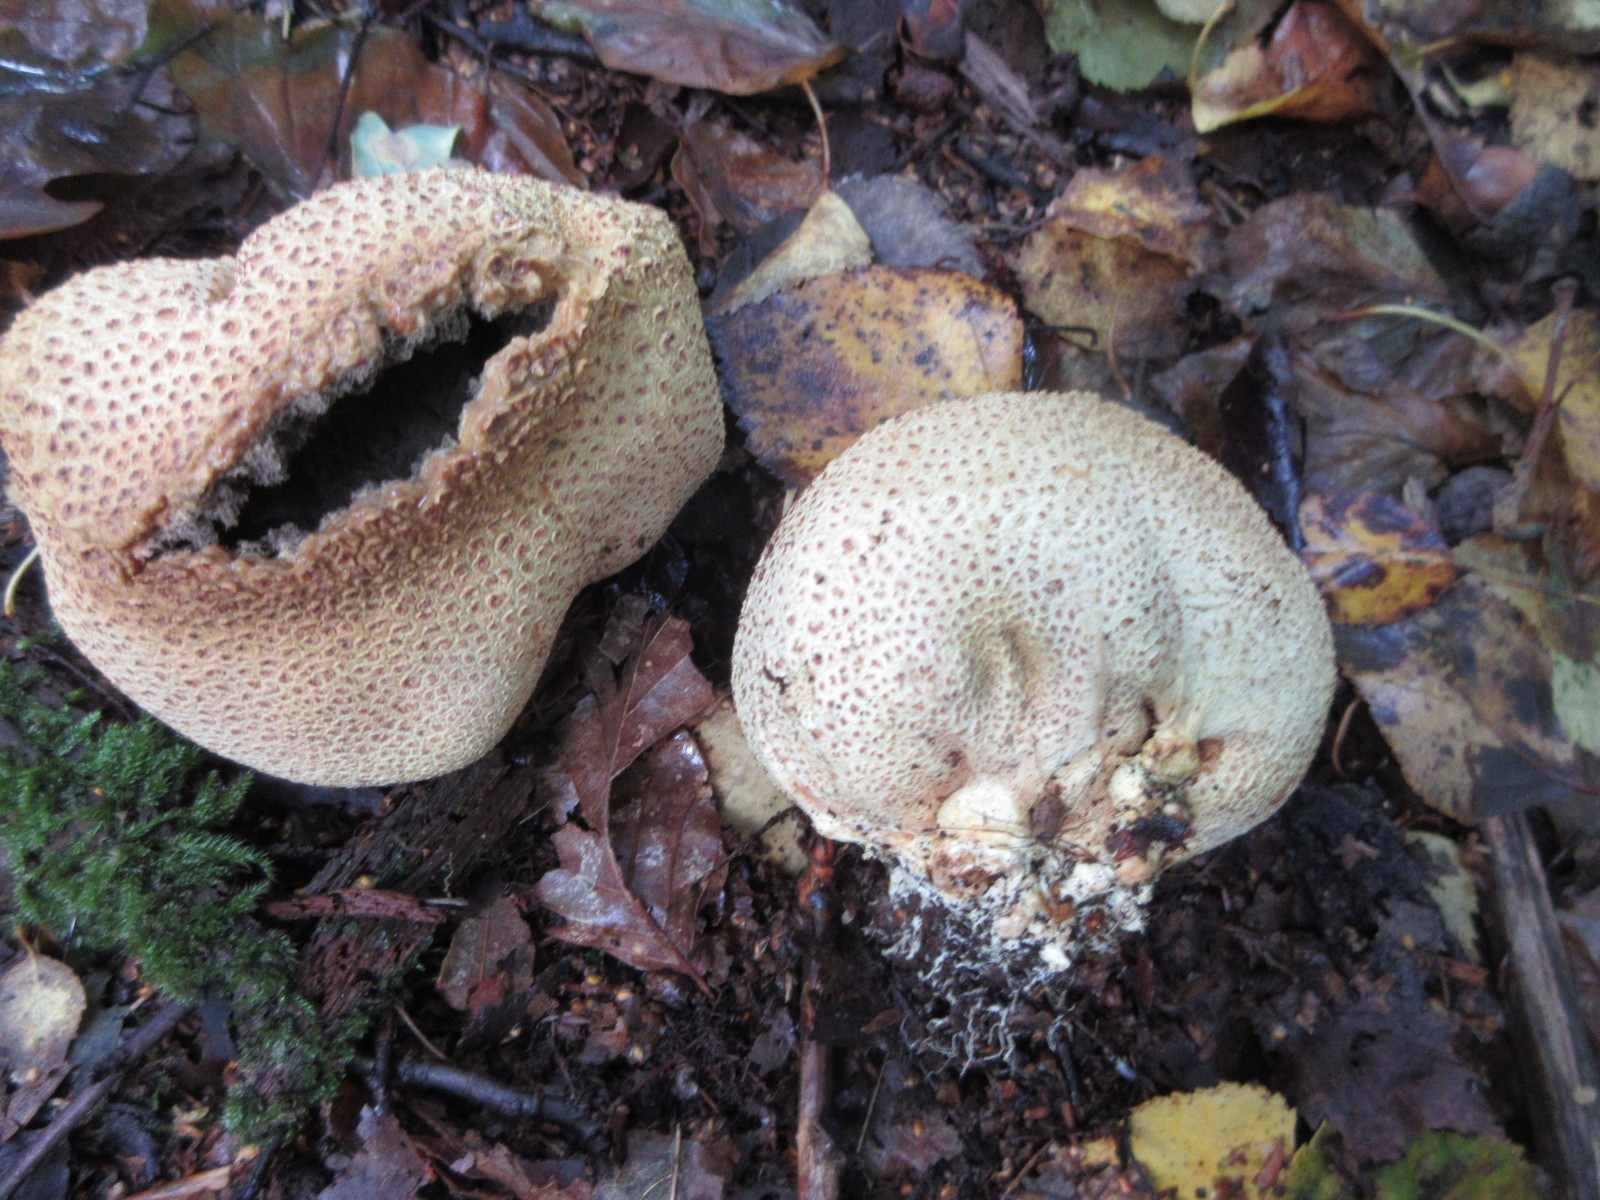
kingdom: Fungi
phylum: Basidiomycota
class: Agaricomycetes
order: Boletales
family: Sclerodermataceae
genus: Scleroderma
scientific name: Scleroderma citrinum
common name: almindelig bruskbold
